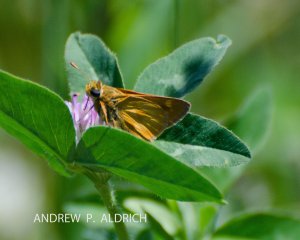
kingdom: Animalia
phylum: Arthropoda
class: Insecta
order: Lepidoptera
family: Hesperiidae
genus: Polites
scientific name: Polites
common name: Long Dash Skipper
